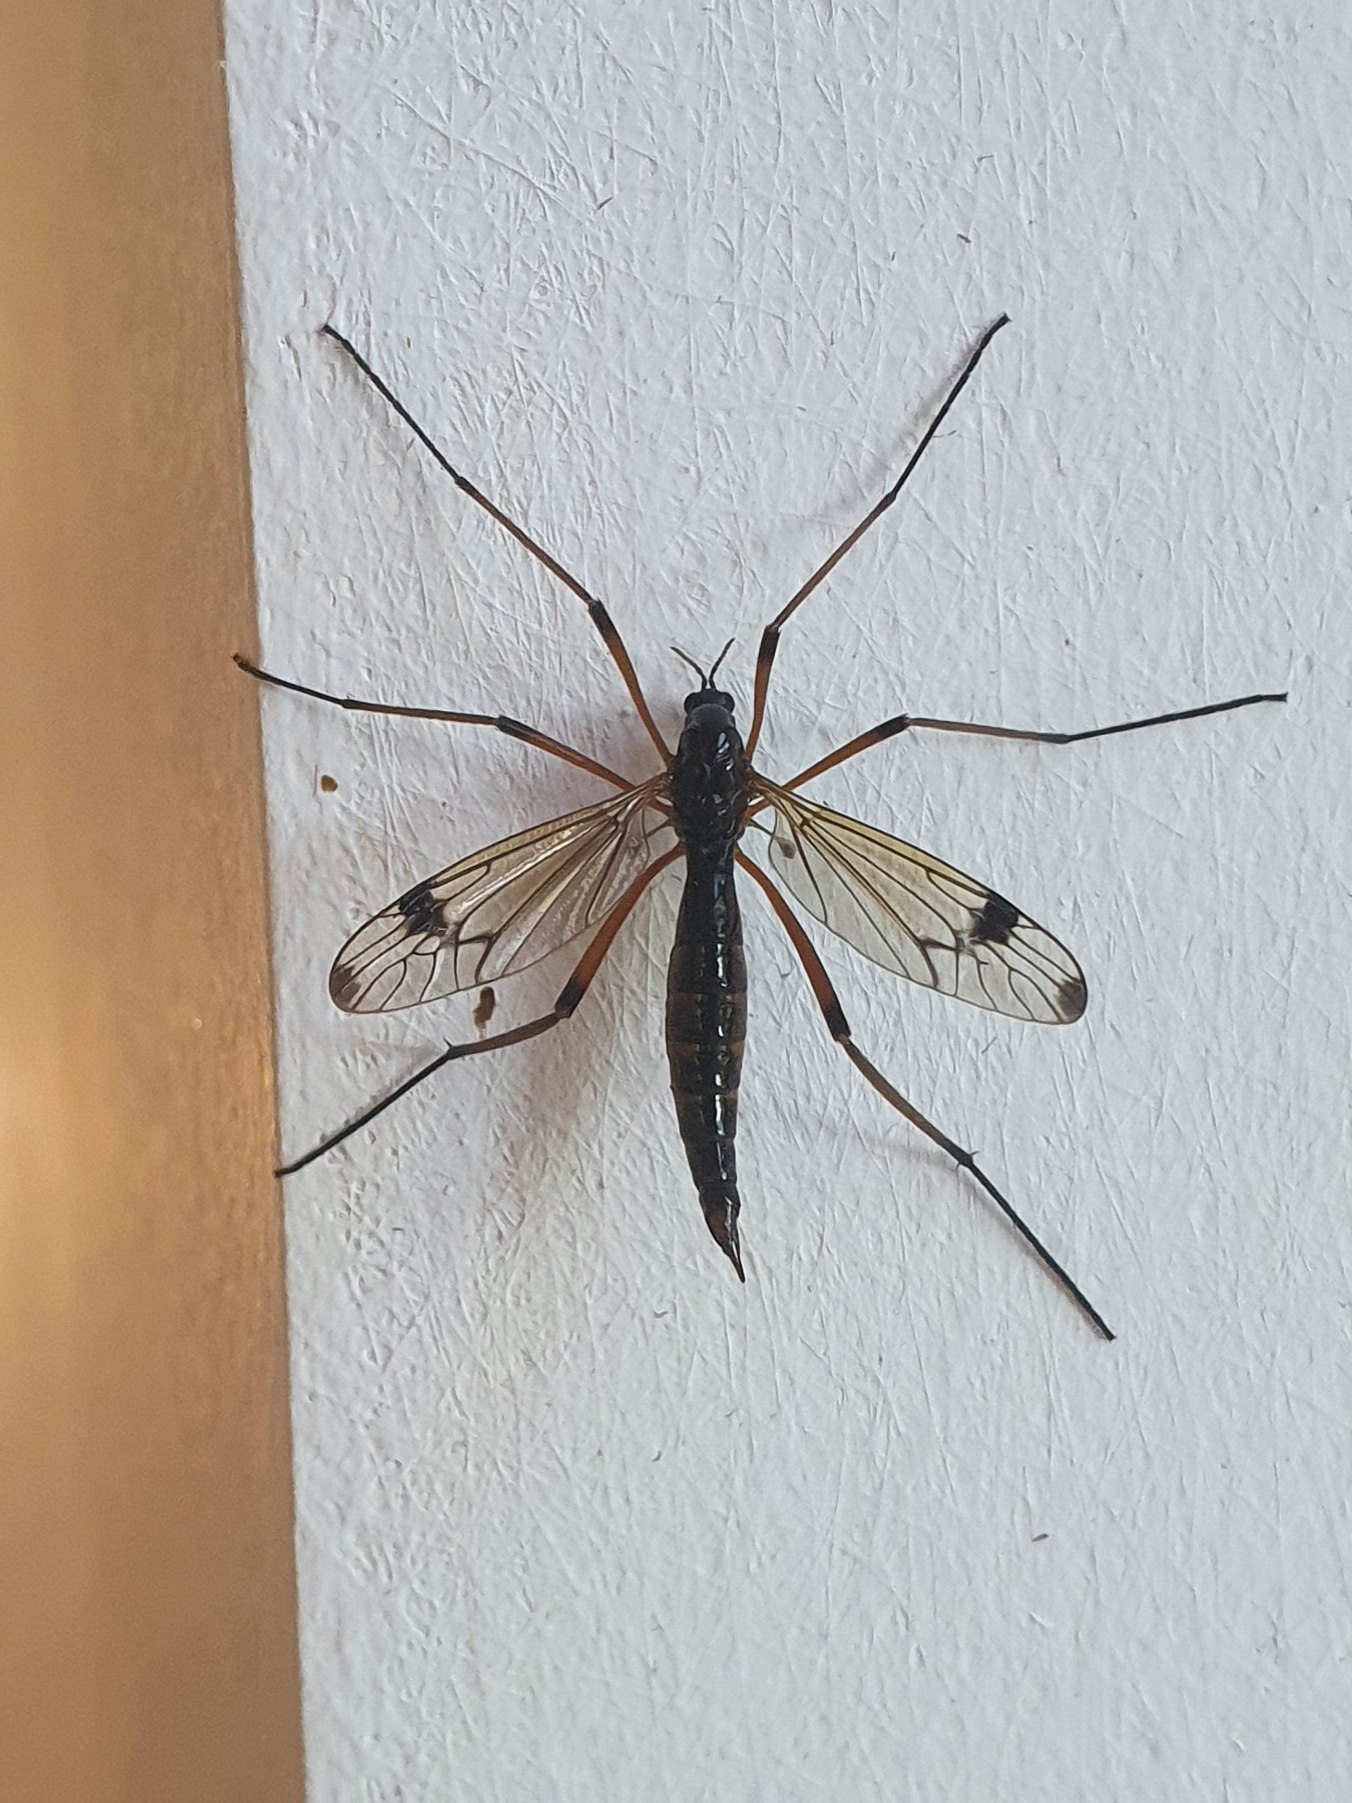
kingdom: Animalia
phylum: Arthropoda
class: Insecta
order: Diptera
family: Tipulidae
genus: Dictenidia
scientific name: Dictenidia bimaculata
